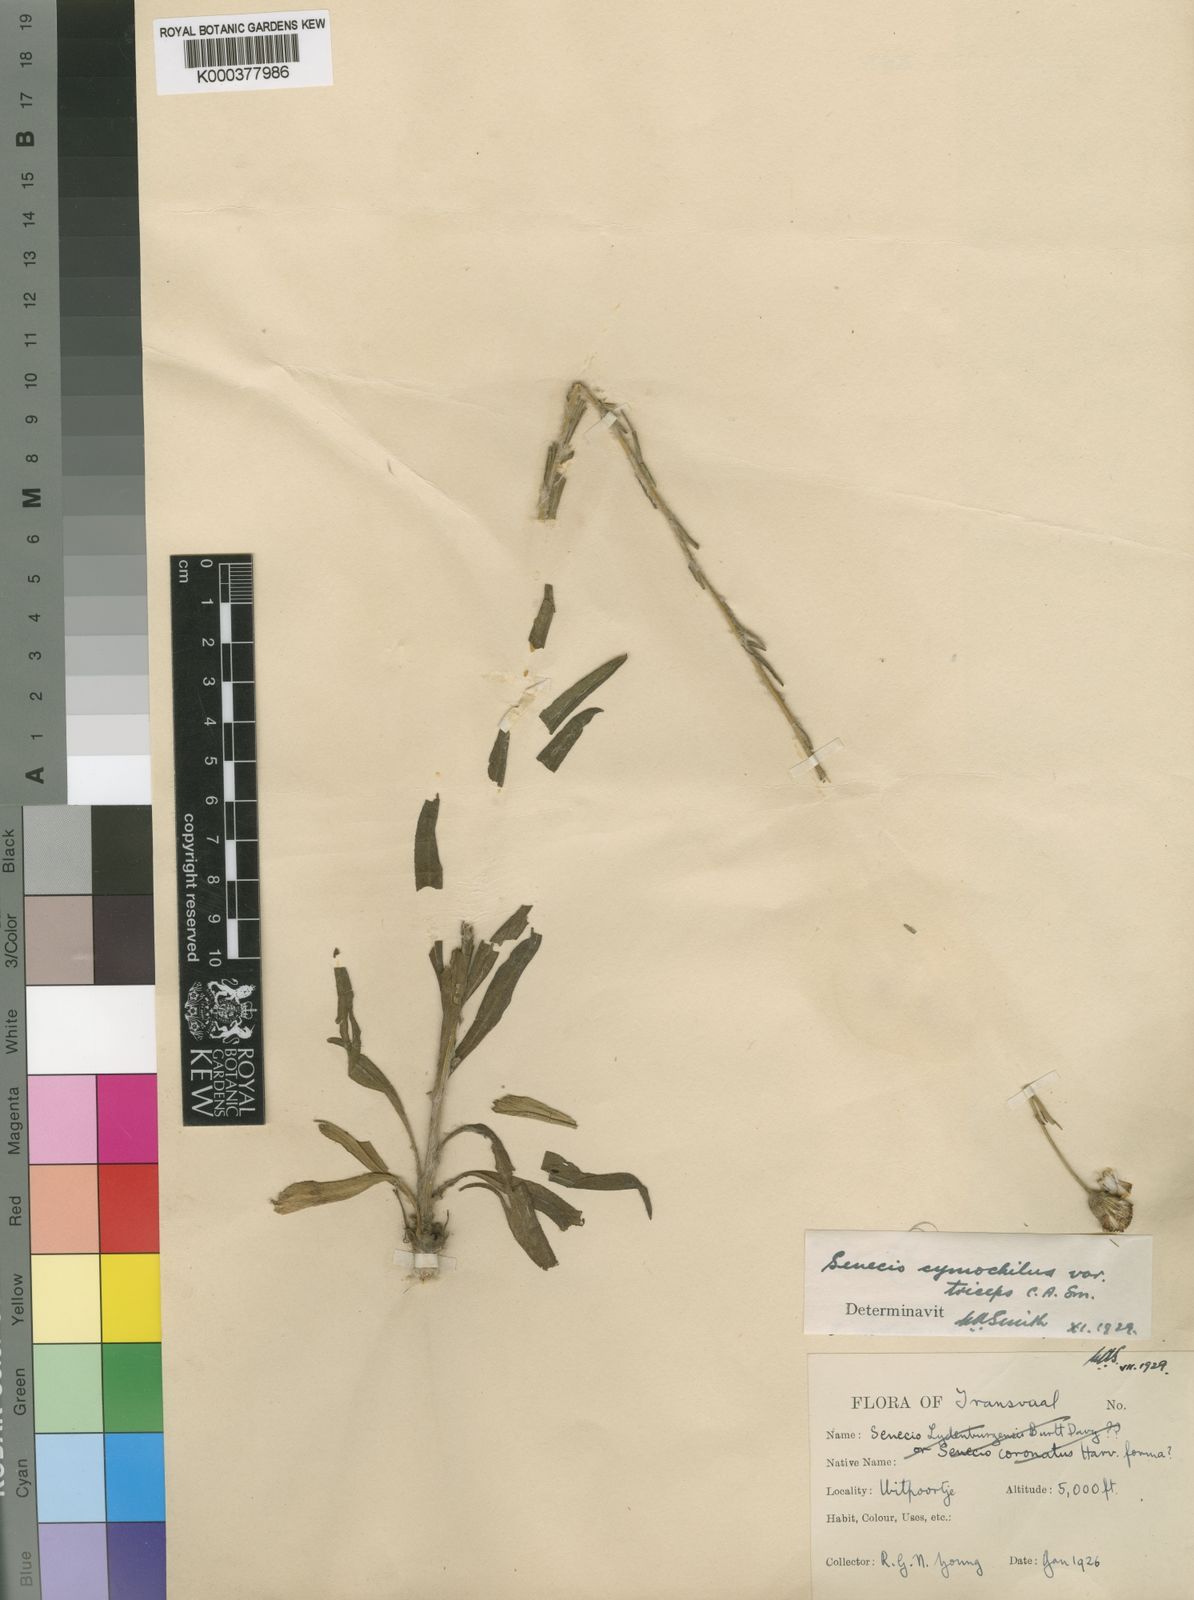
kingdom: Plantae
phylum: Tracheophyta
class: Magnoliopsida
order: Asterales
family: Asteraceae
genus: Senecio
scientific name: Senecio
